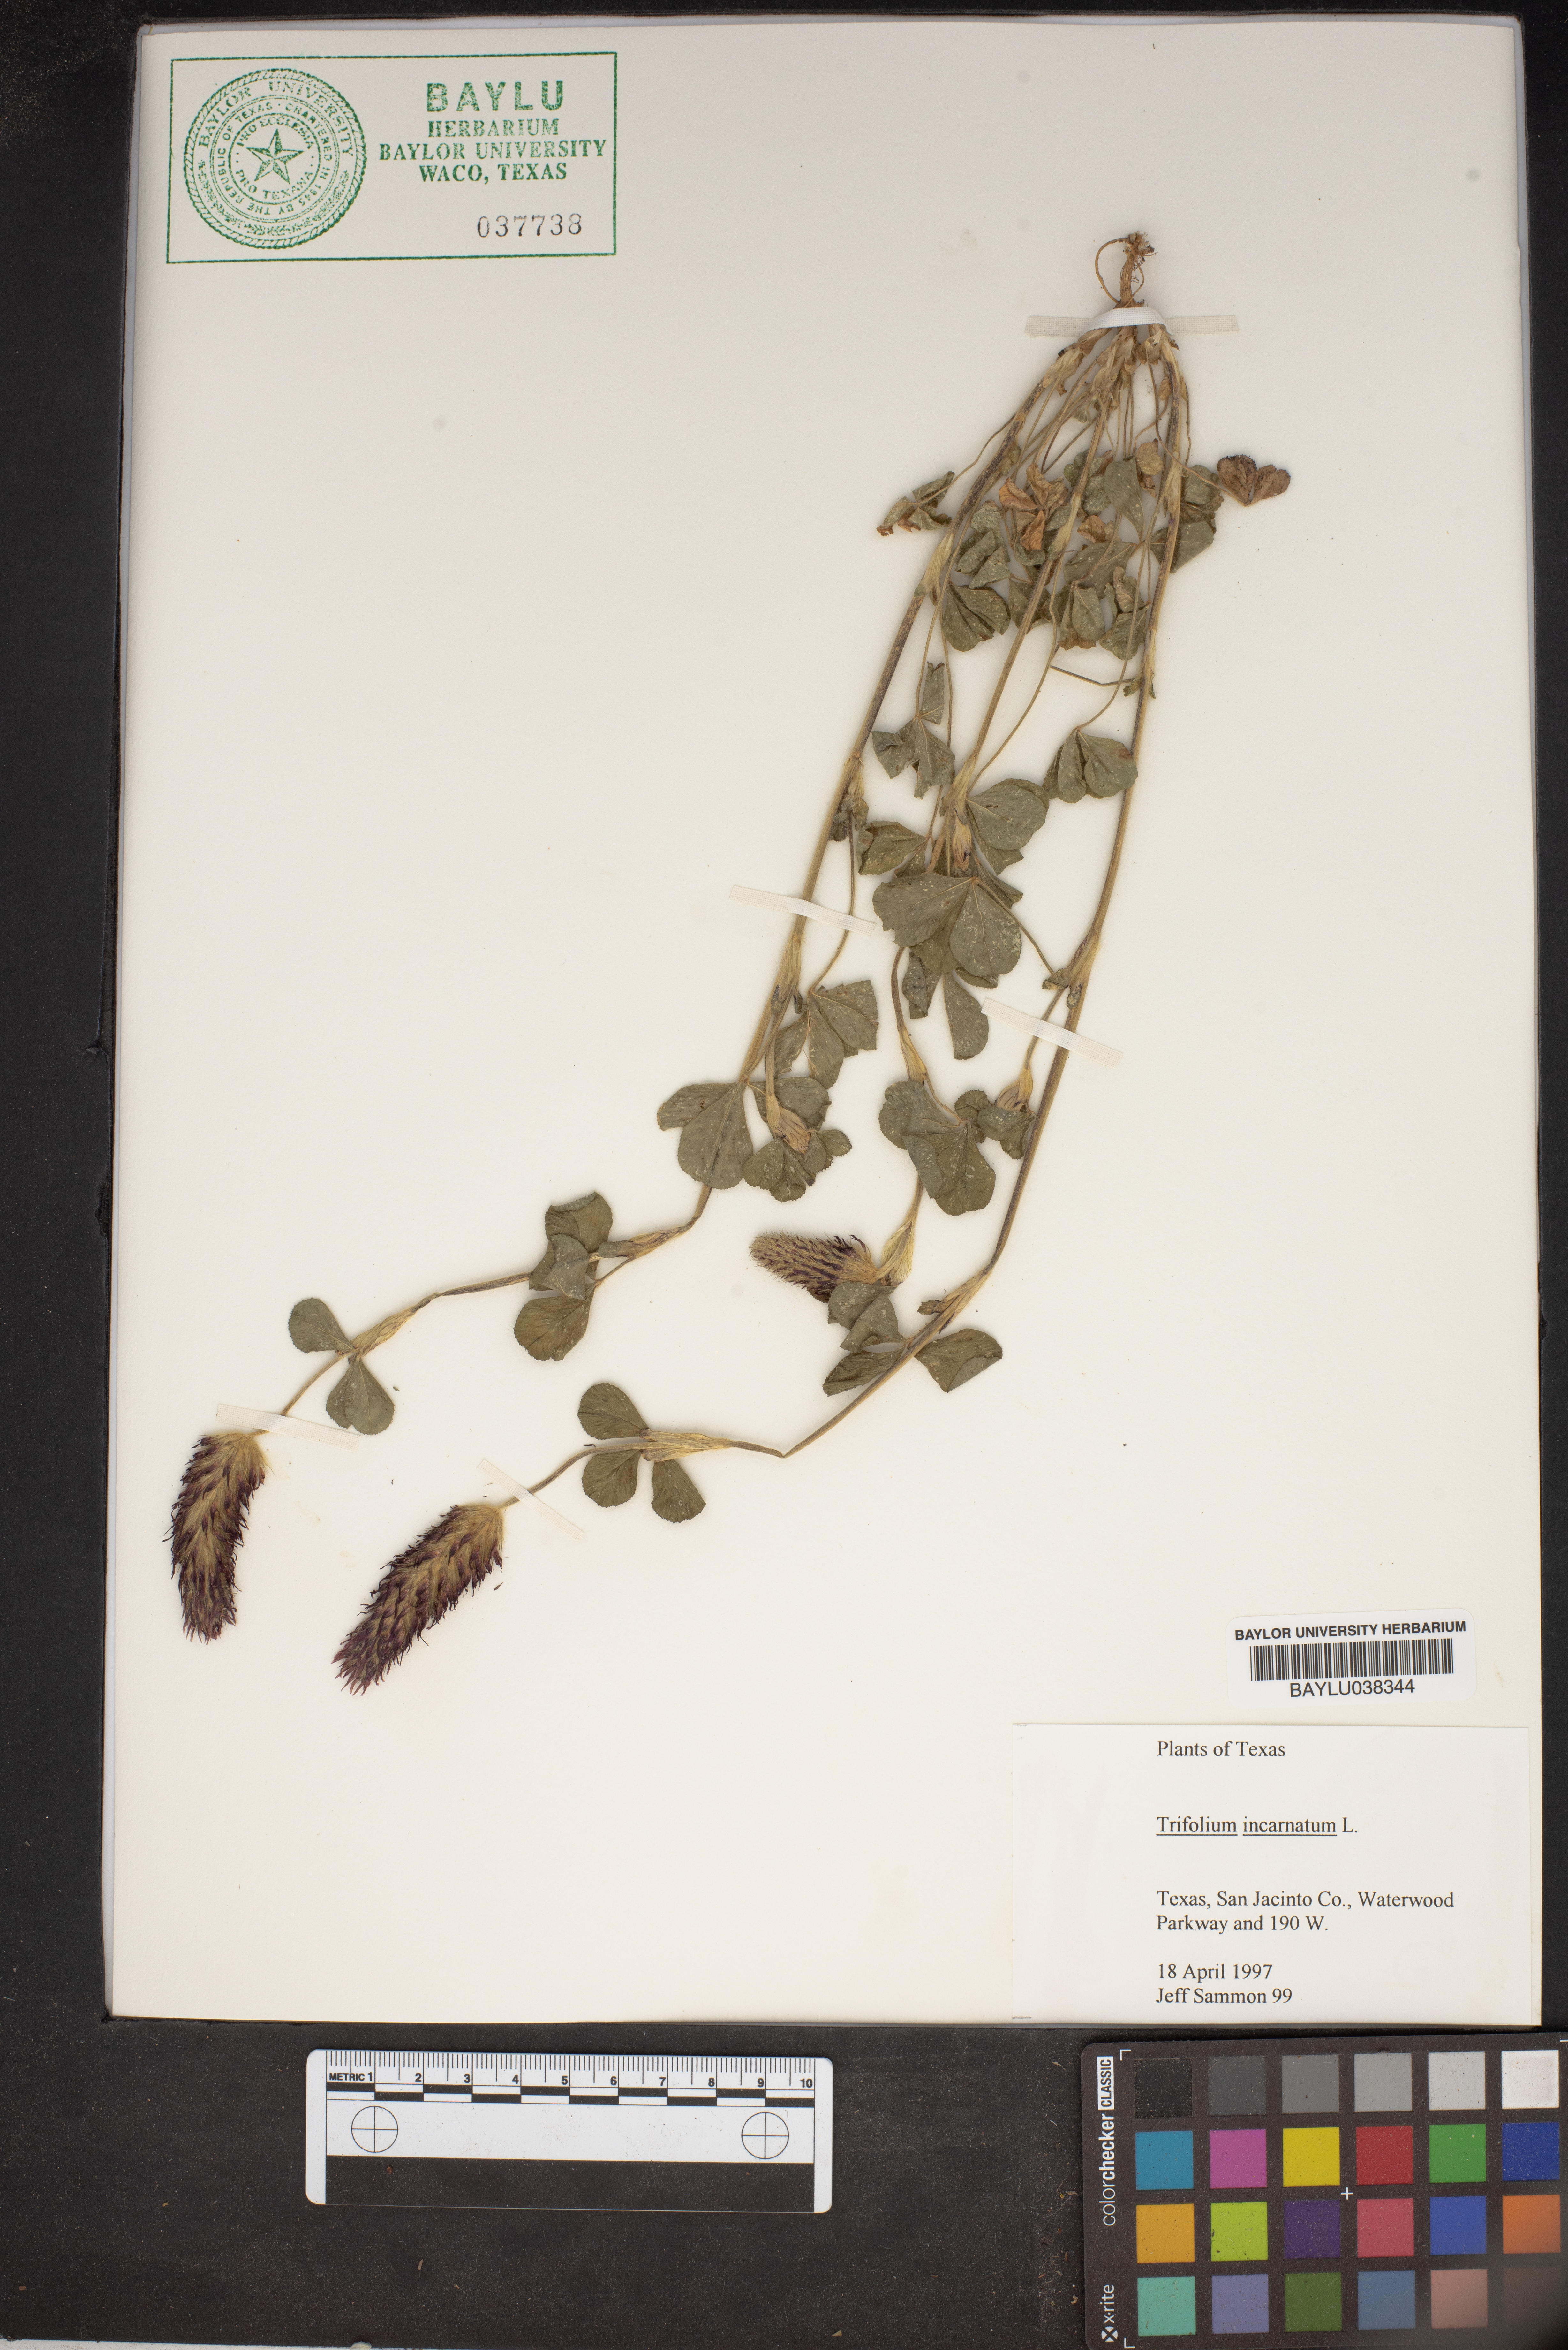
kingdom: Plantae
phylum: Tracheophyta
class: Magnoliopsida
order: Fabales
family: Fabaceae
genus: Trifolium
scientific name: Trifolium incarnatum
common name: Crimson clover
